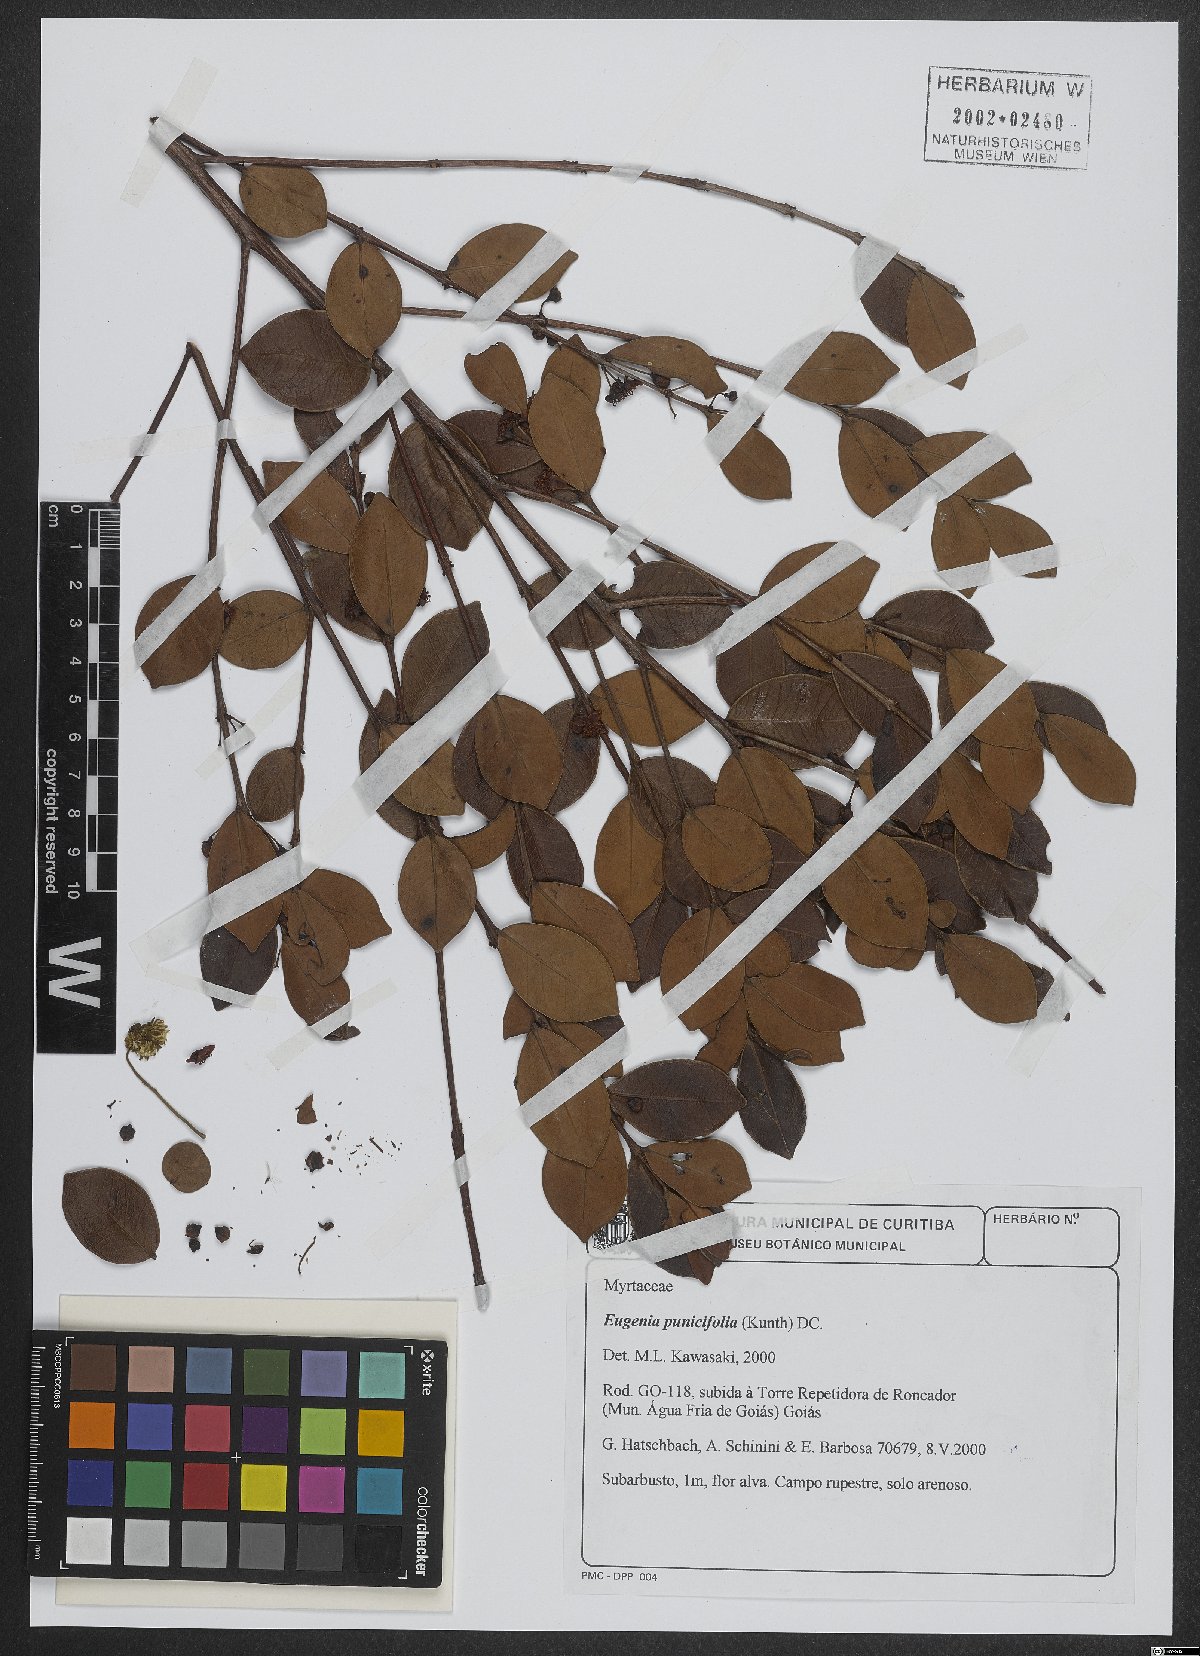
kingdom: Plantae
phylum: Tracheophyta
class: Magnoliopsida
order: Myrtales
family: Myrtaceae
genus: Eugenia
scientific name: Eugenia punicifolia
